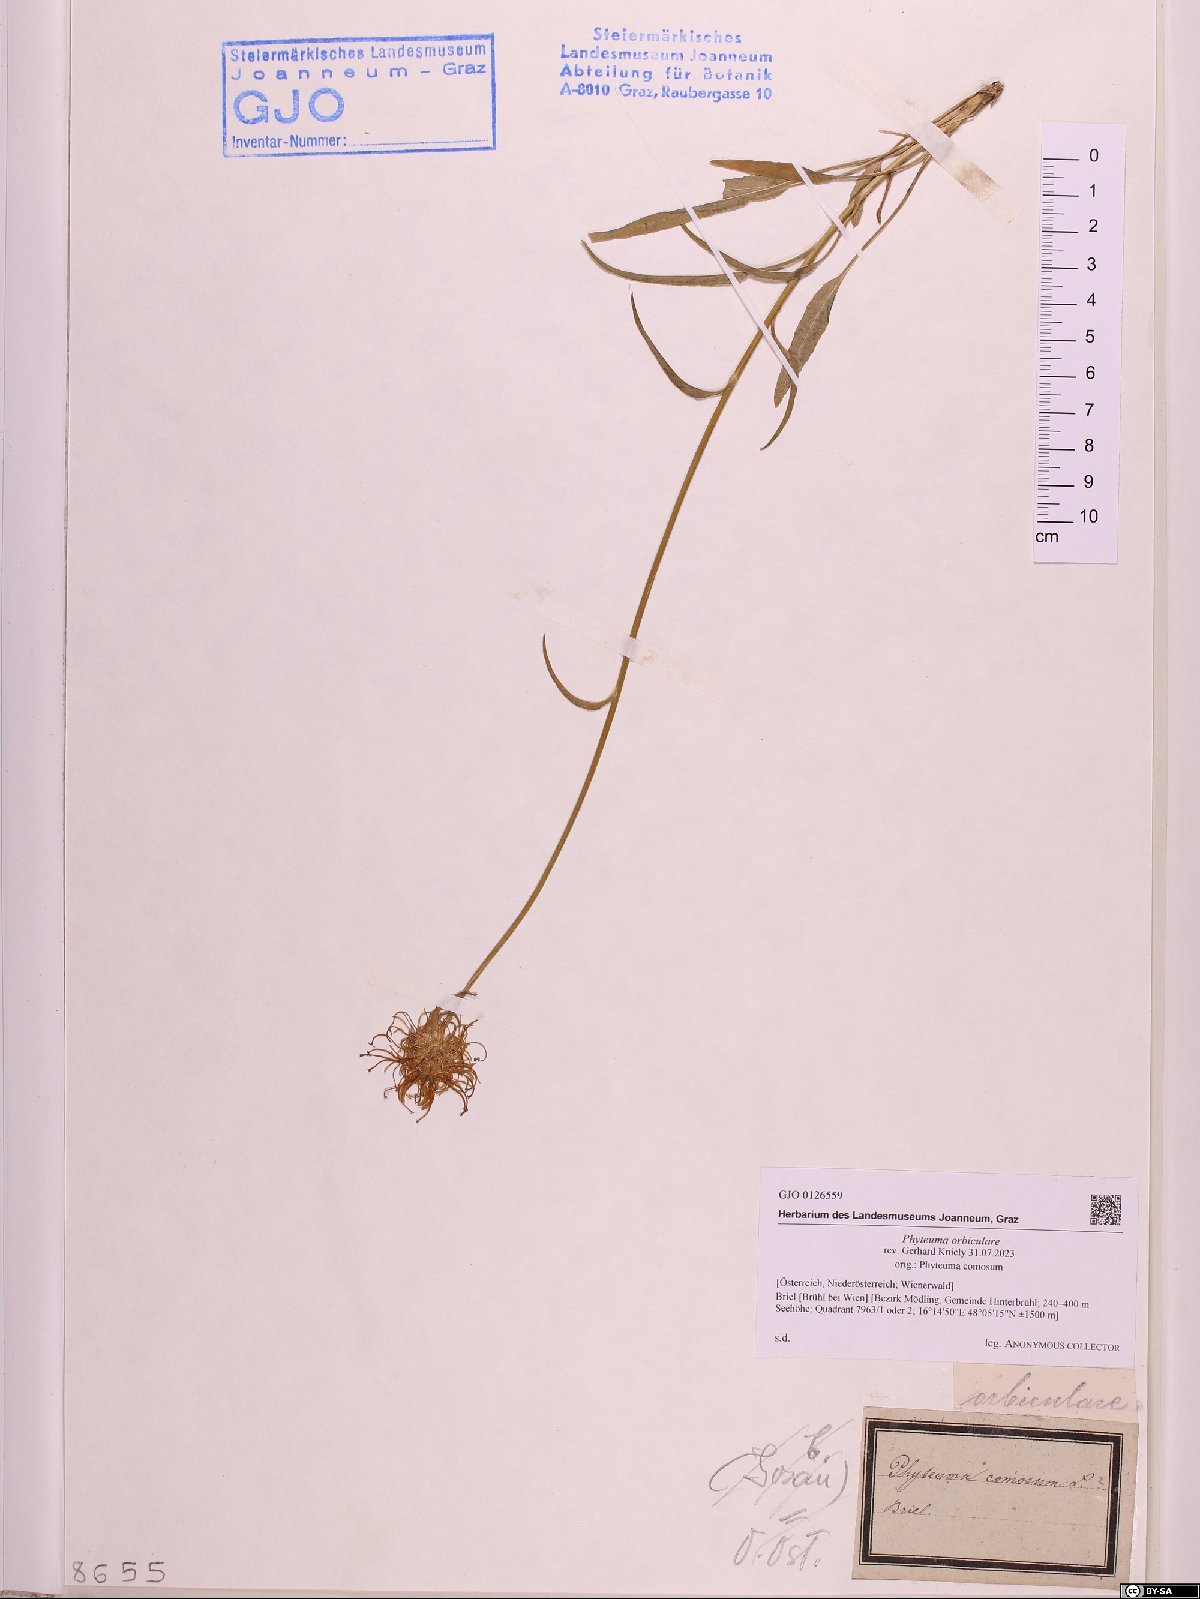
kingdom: Plantae
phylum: Tracheophyta
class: Magnoliopsida
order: Asterales
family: Campanulaceae
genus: Phyteuma
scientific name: Phyteuma orbiculare
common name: Round-headed rampion
